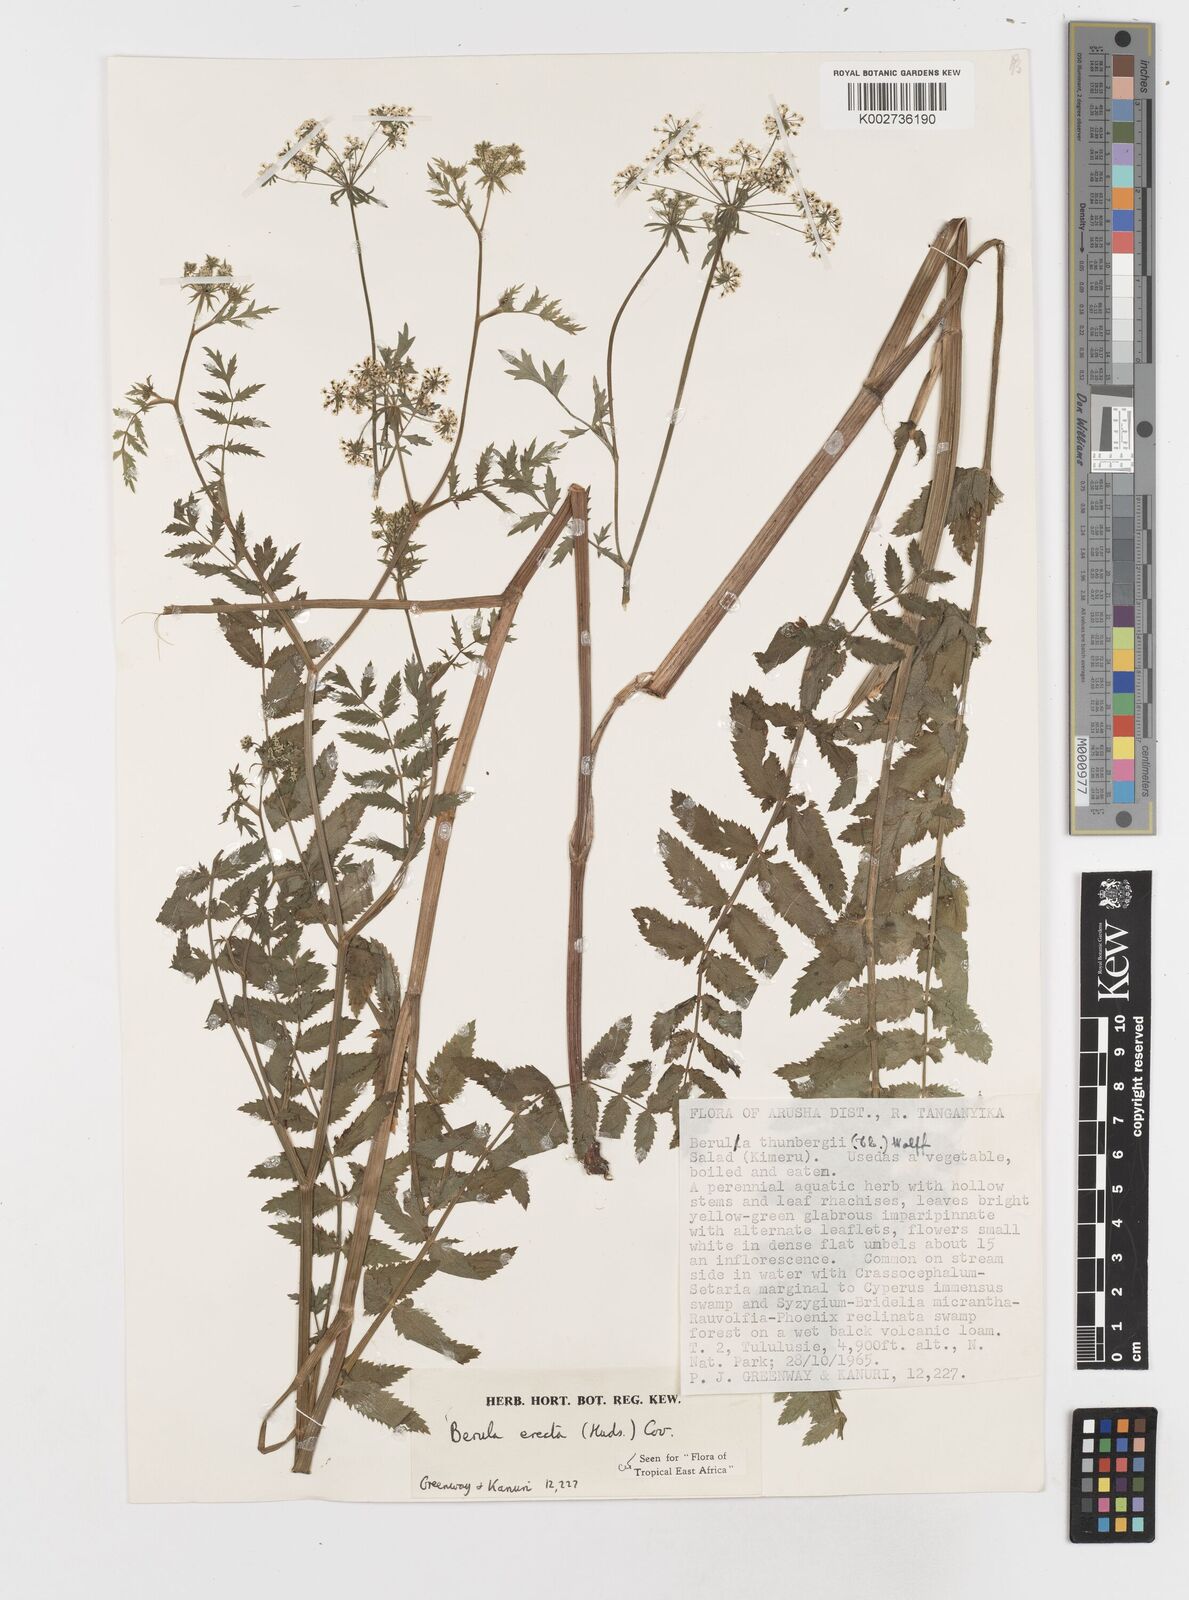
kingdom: Plantae
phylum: Tracheophyta
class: Magnoliopsida
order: Apiales
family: Apiaceae
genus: Berula
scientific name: Berula erecta
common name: Lesser water-parsnip
